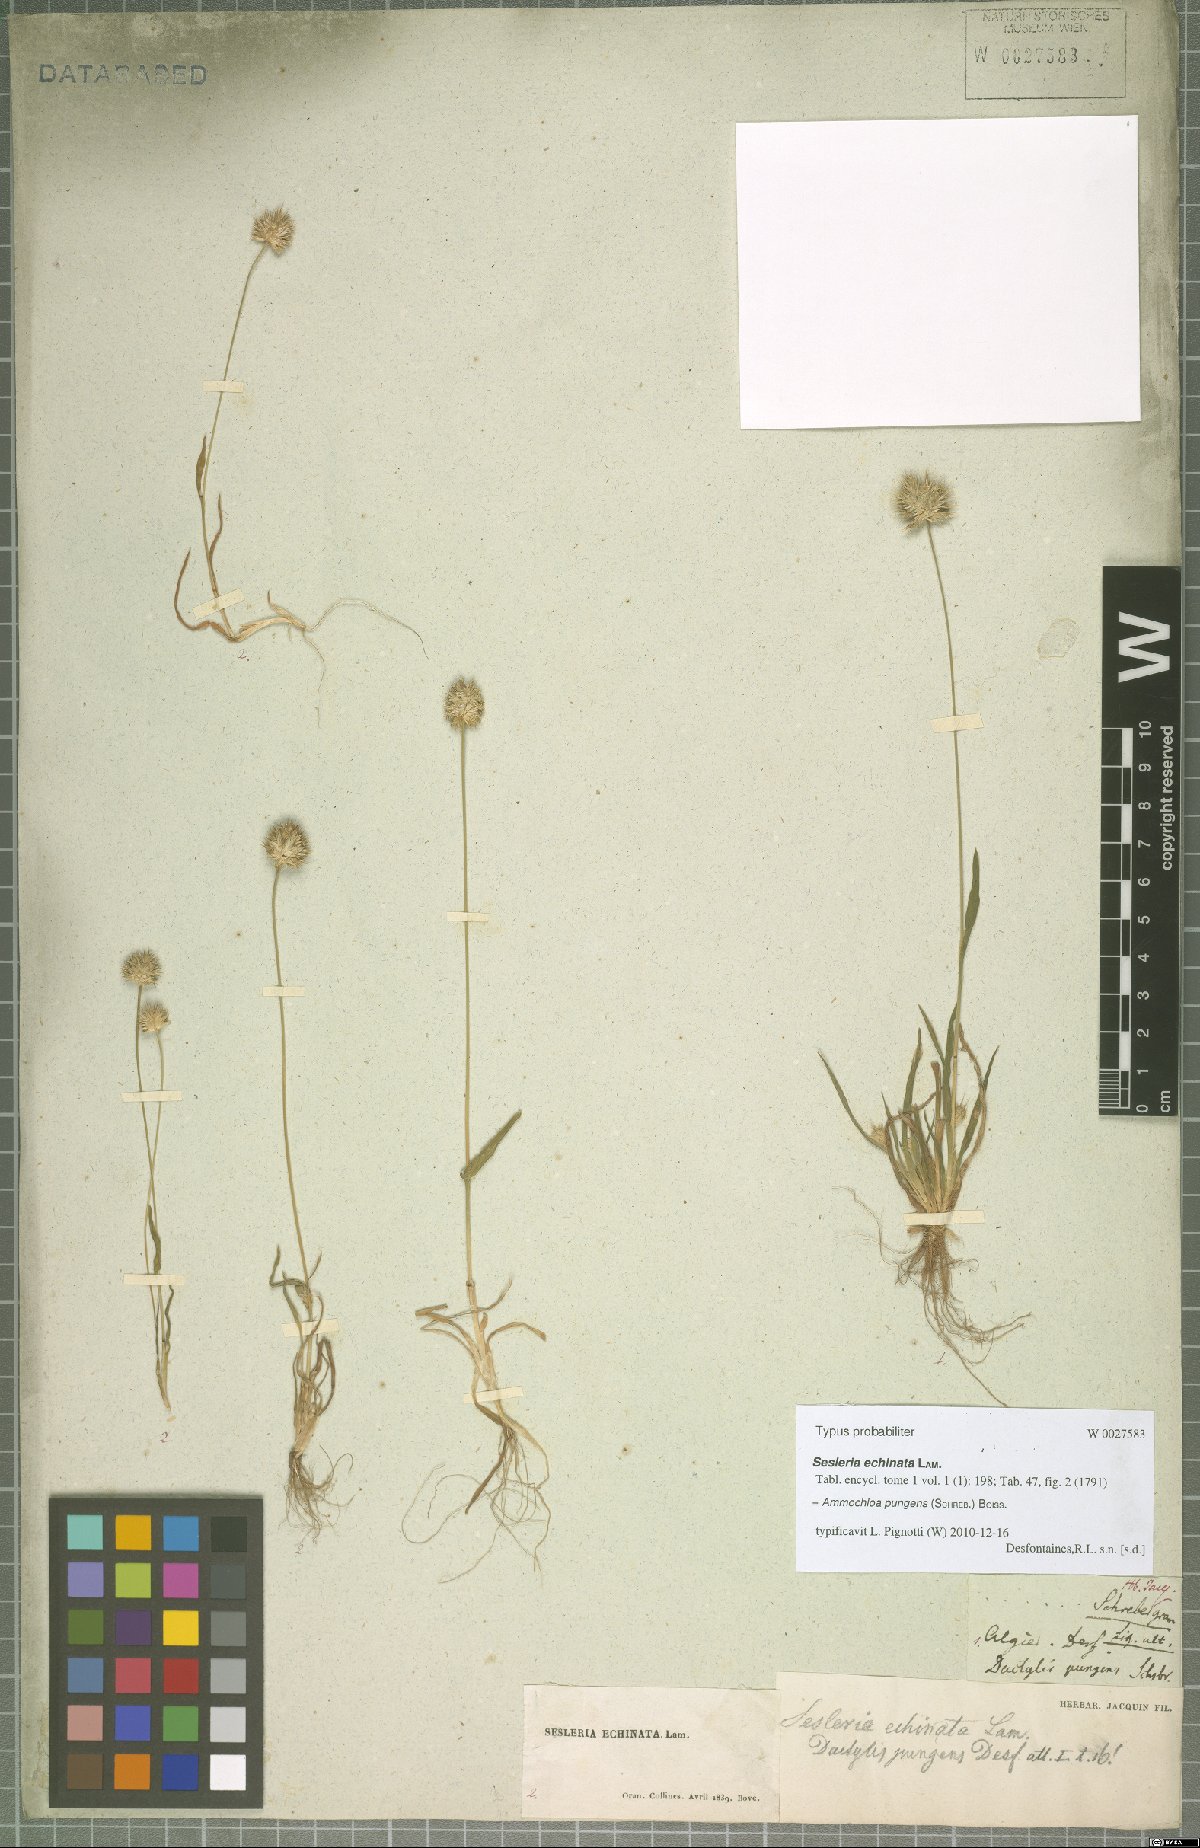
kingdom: Plantae
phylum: Tracheophyta
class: Liliopsida
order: Poales
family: Poaceae
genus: Ammochloa
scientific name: Ammochloa pungens
